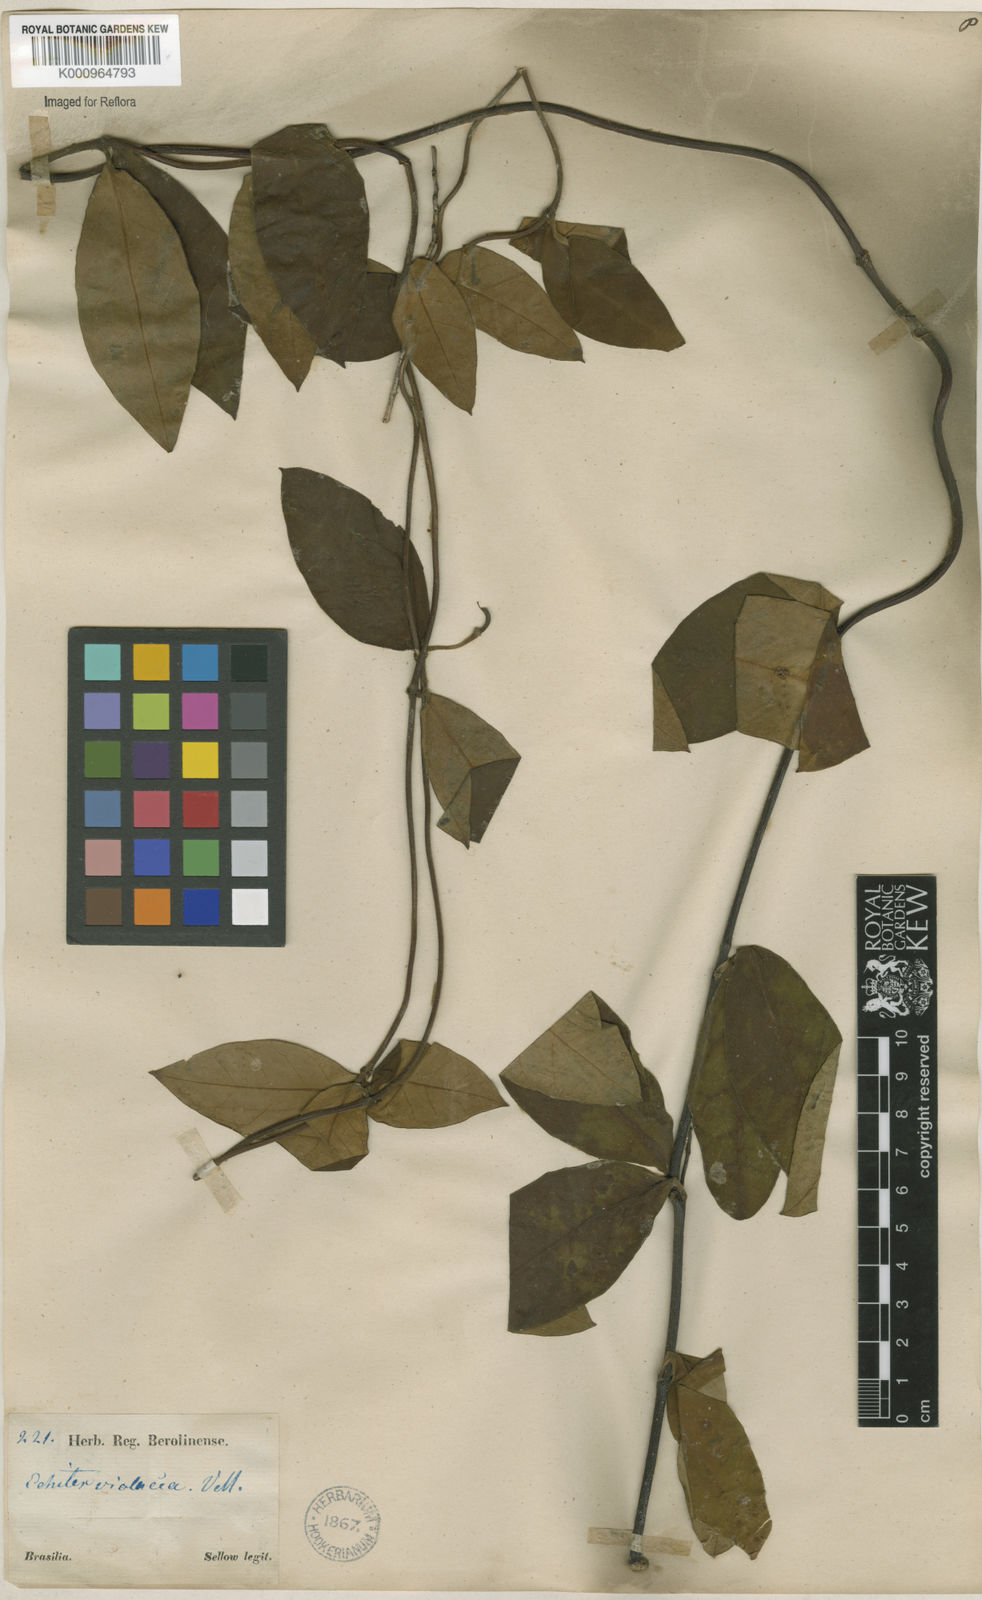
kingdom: Plantae
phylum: Tracheophyta
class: Magnoliopsida
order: Gentianales
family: Apocynaceae
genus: Temnadenia
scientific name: Temnadenia violacea
